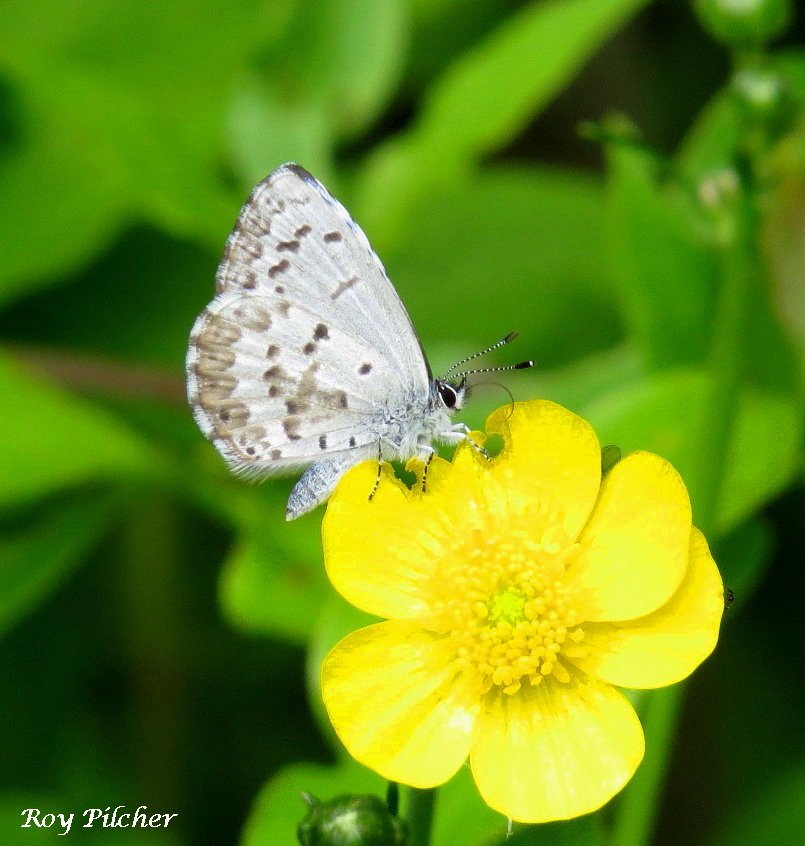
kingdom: Animalia
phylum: Arthropoda
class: Insecta
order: Lepidoptera
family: Lycaenidae
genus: Celastrina
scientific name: Celastrina lucia
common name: Northern Spring Azure
